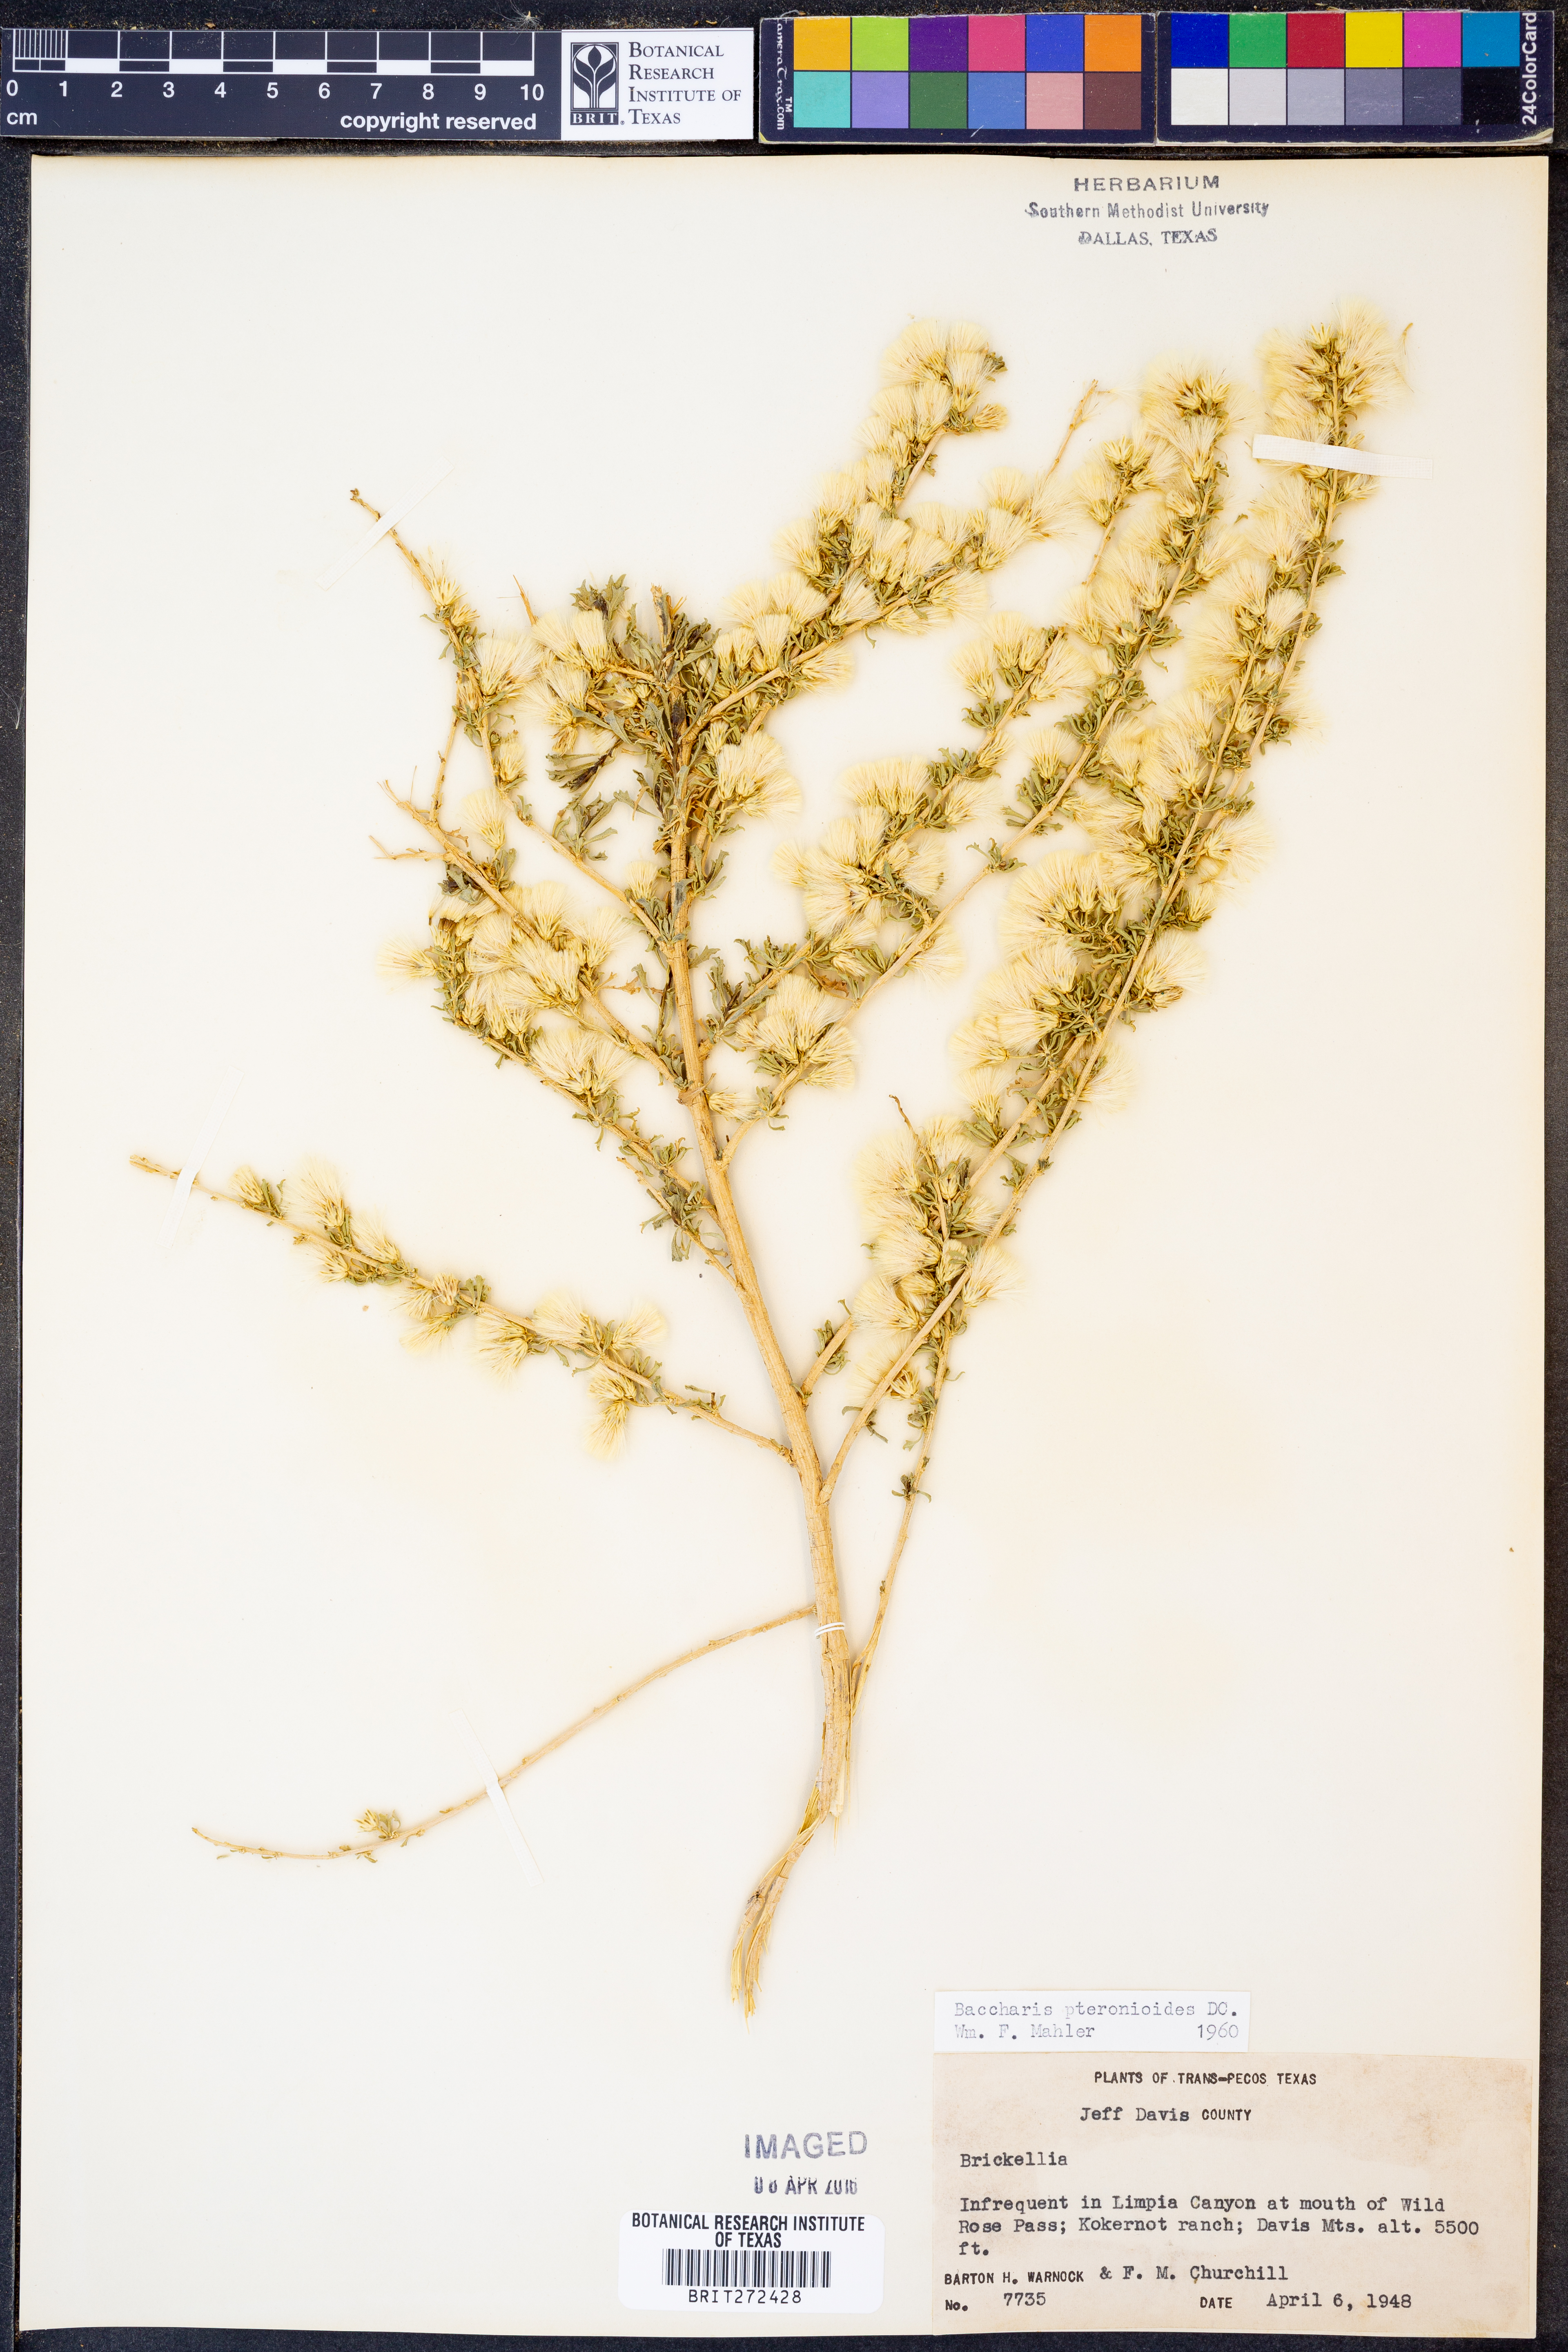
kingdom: Plantae
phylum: Tracheophyta
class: Magnoliopsida
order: Asterales
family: Asteraceae
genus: Baccharis
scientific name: Baccharis pteronioides
